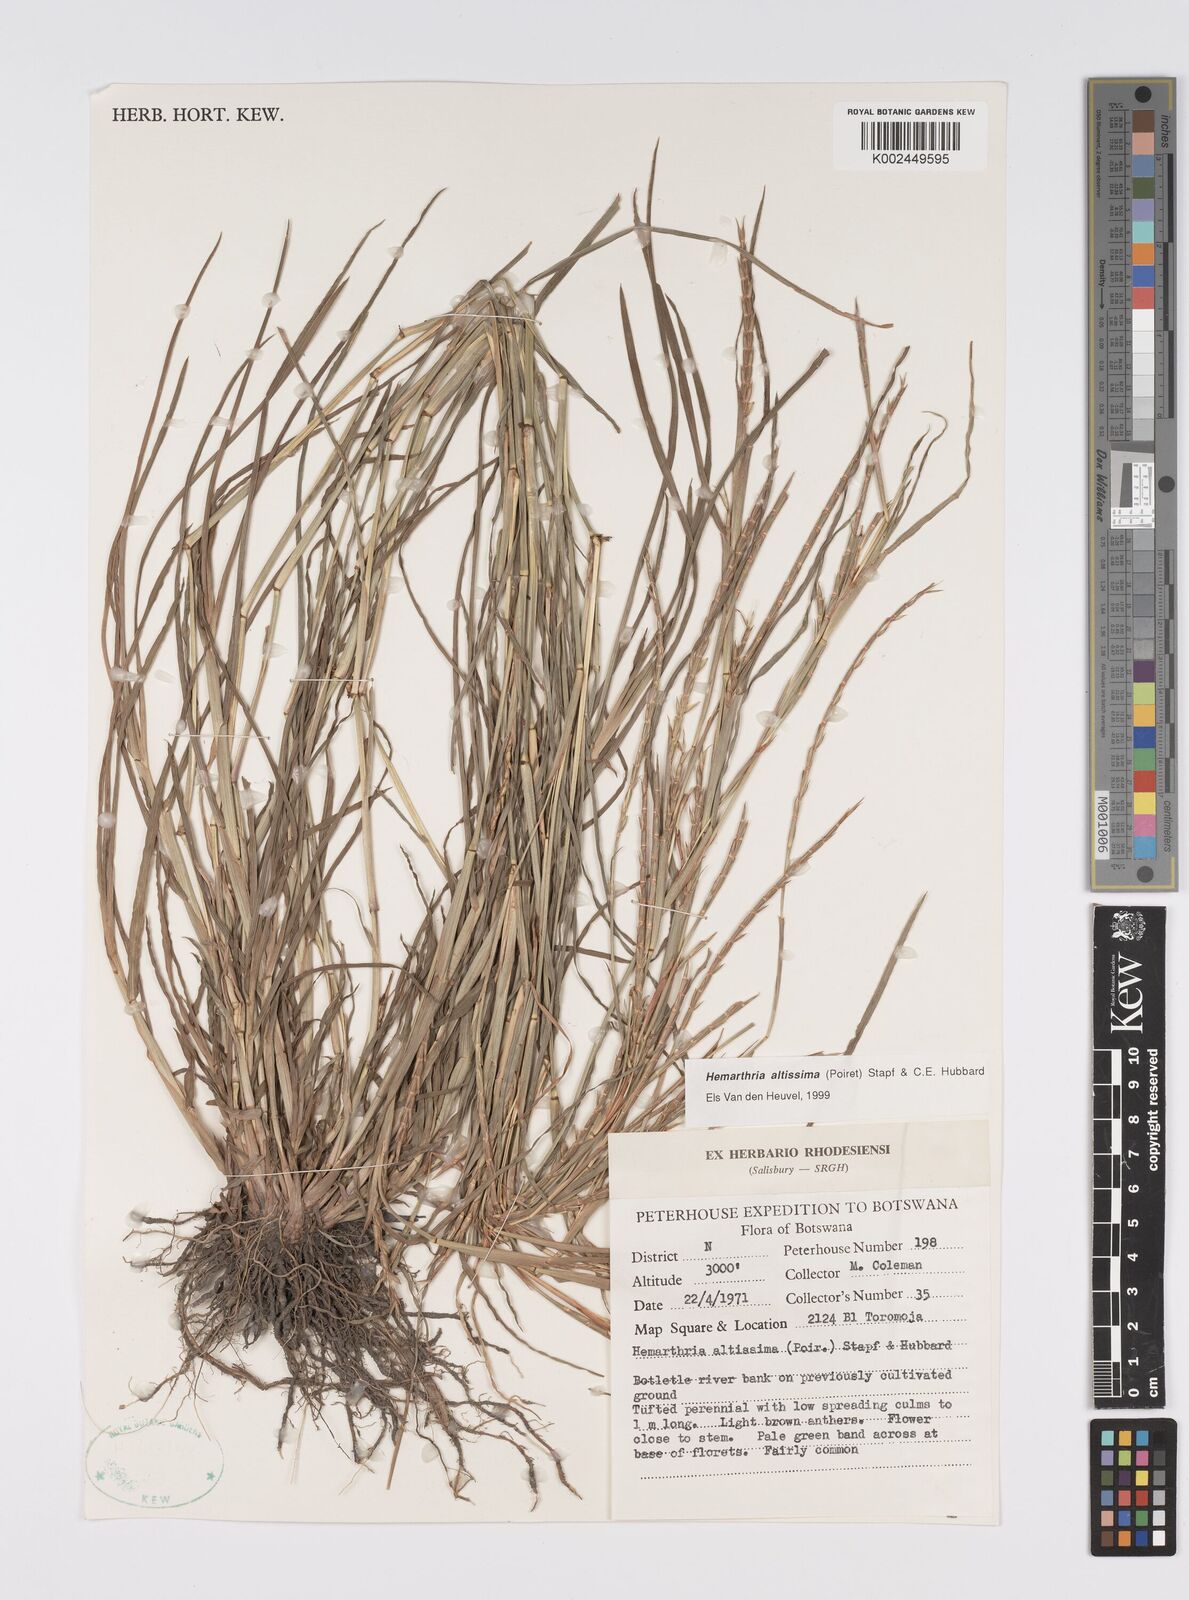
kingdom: Plantae
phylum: Tracheophyta
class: Liliopsida
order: Poales
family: Poaceae
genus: Hemarthria
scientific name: Hemarthria altissima
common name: African jointgrass
